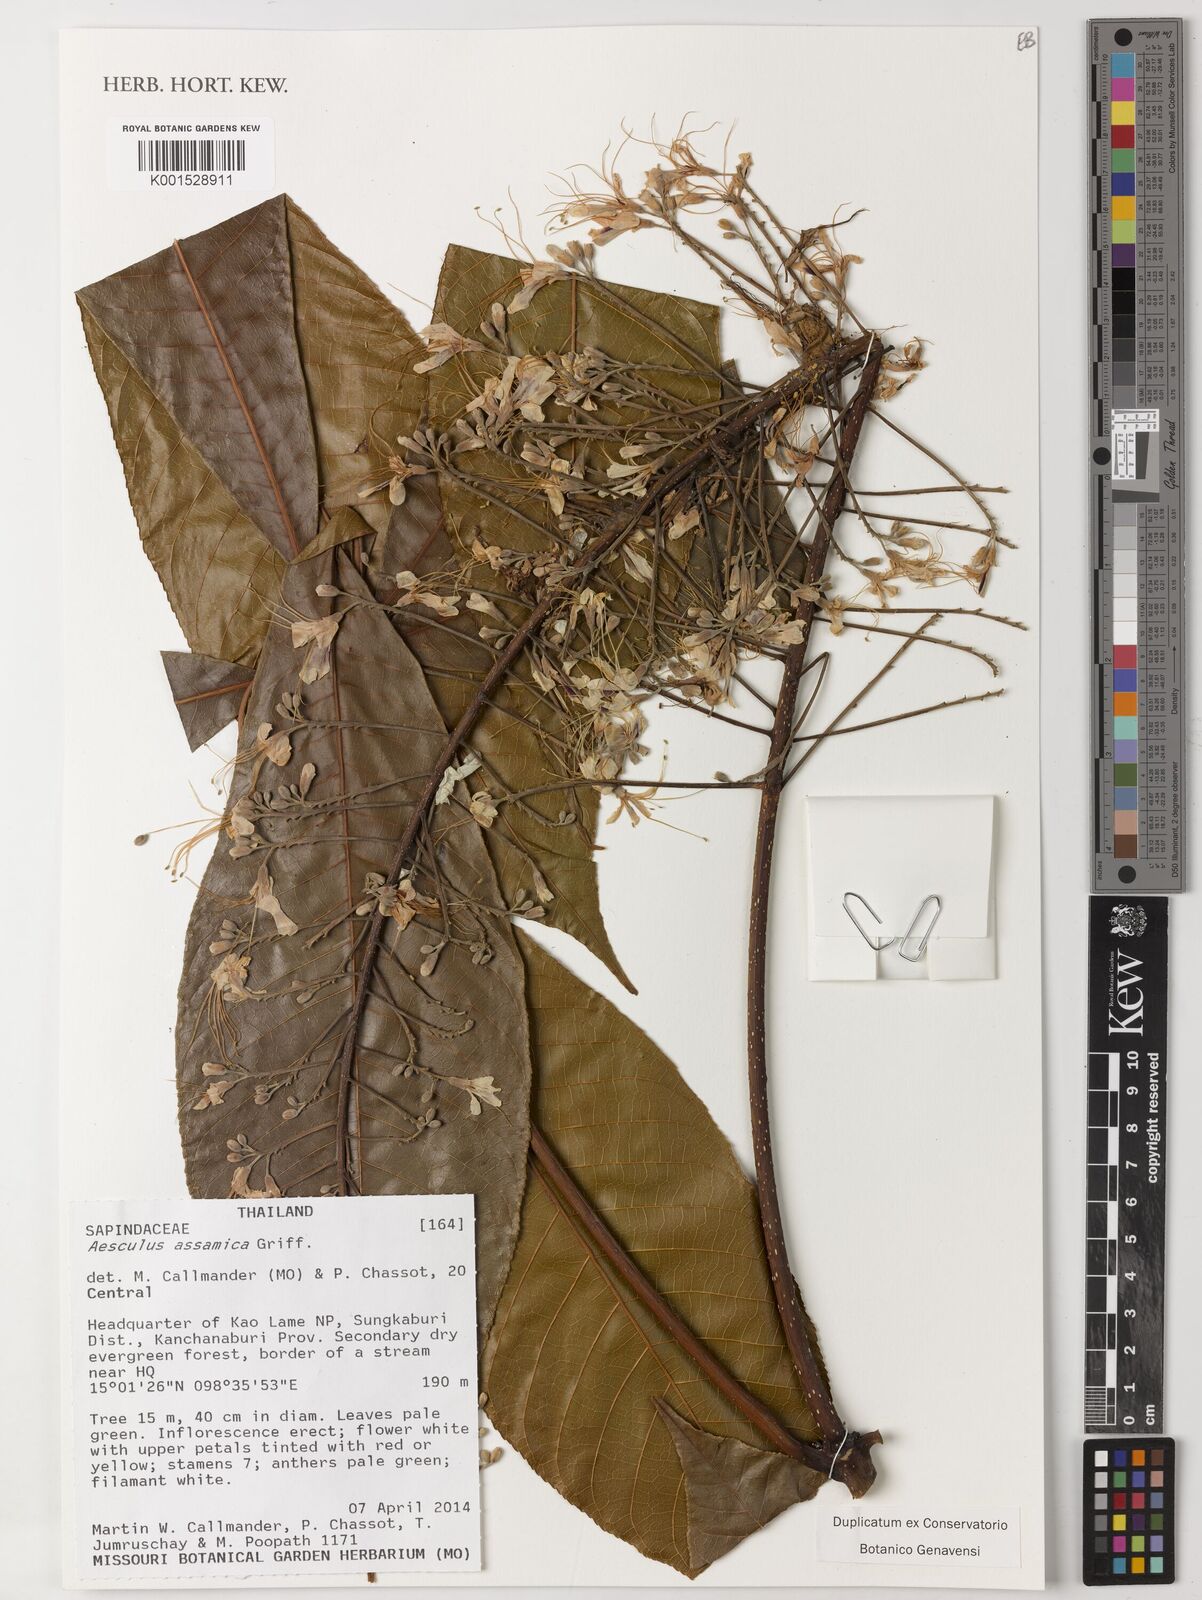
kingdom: Plantae
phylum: Tracheophyta
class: Magnoliopsida
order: Sapindales
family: Sapindaceae
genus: Aesculus
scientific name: Aesculus assamica
